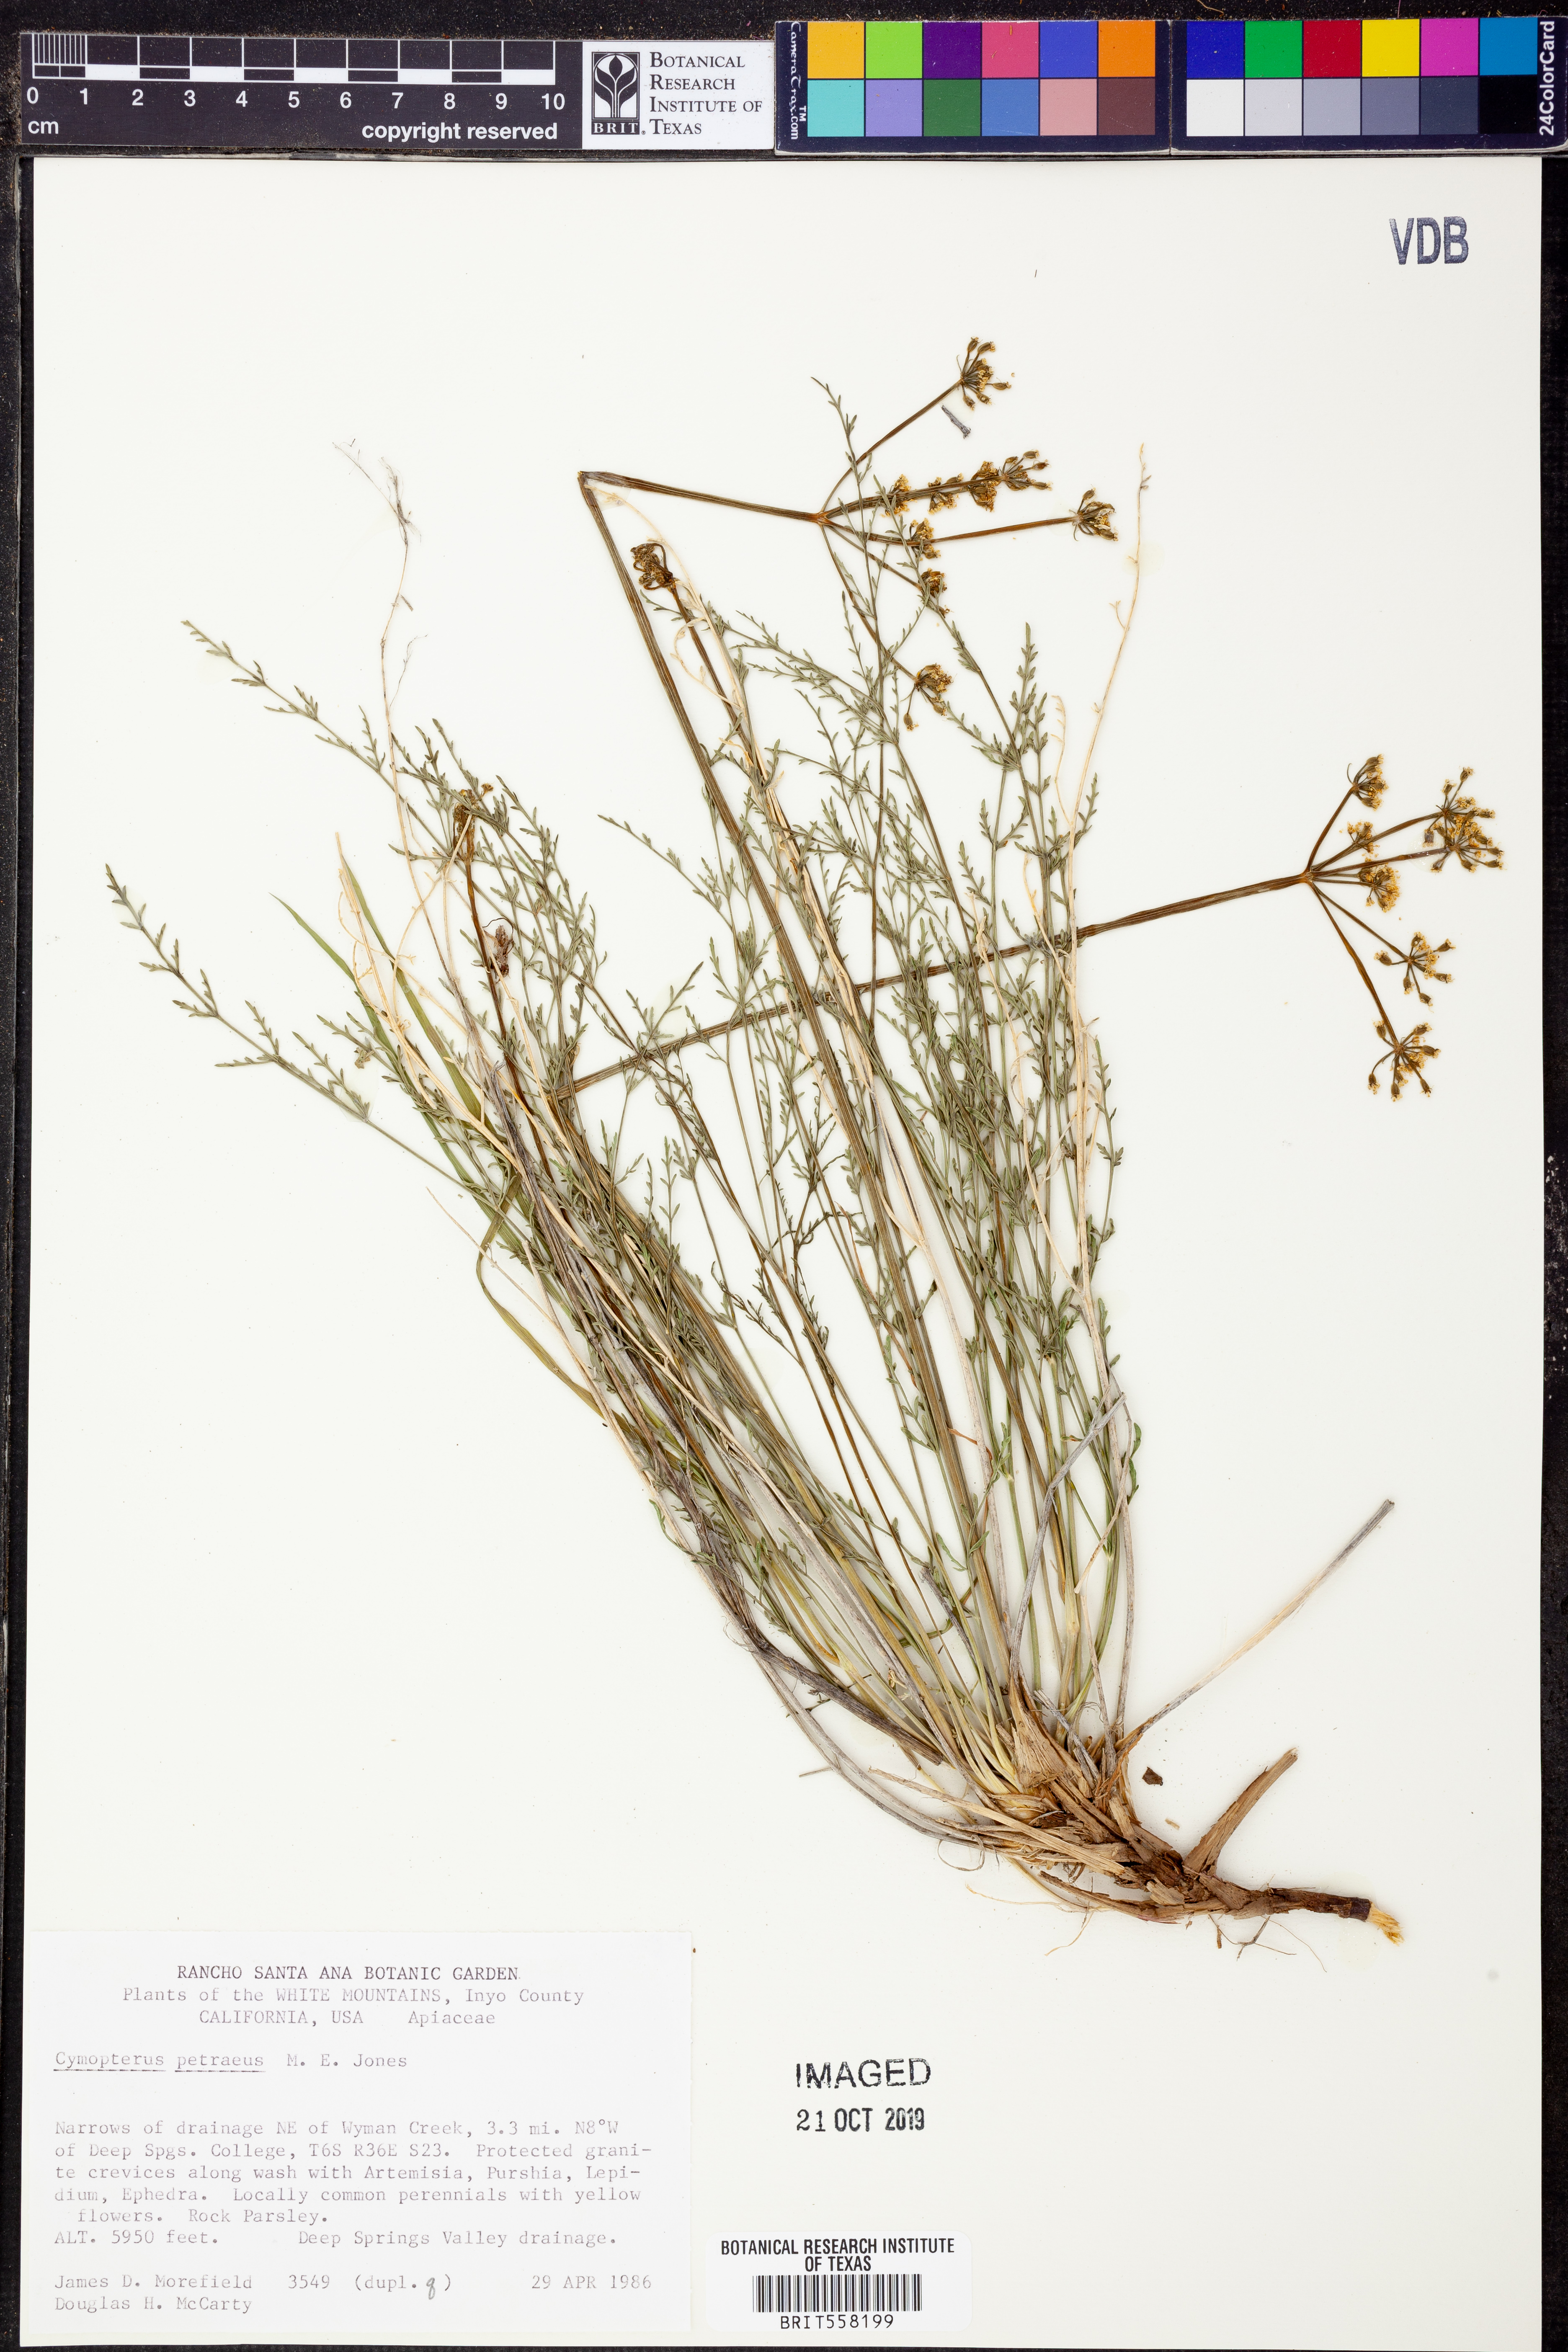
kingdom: Plantae
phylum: Tracheophyta
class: Magnoliopsida
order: Apiales
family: Apiaceae
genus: Pteryxia
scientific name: Pteryxia petraea
